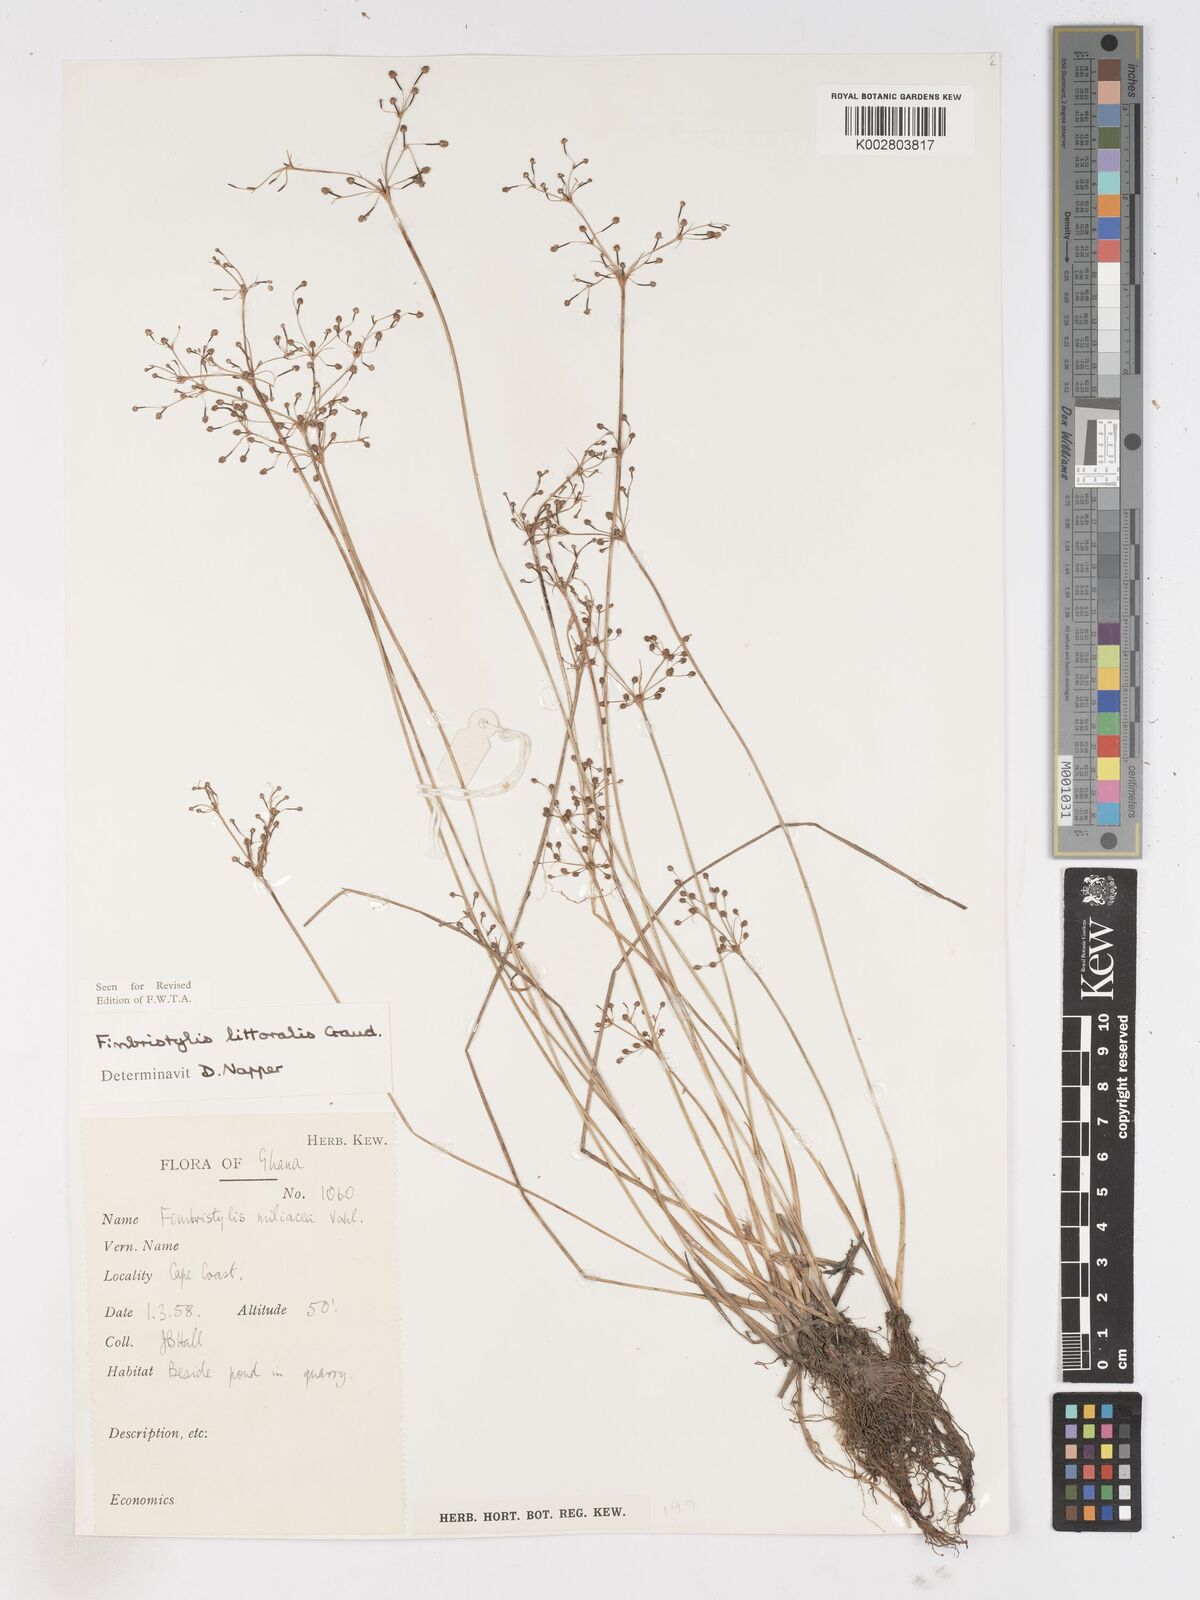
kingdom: Plantae
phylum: Tracheophyta
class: Liliopsida
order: Poales
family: Cyperaceae
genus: Fimbristylis
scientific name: Fimbristylis littoralis
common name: Fimbry
